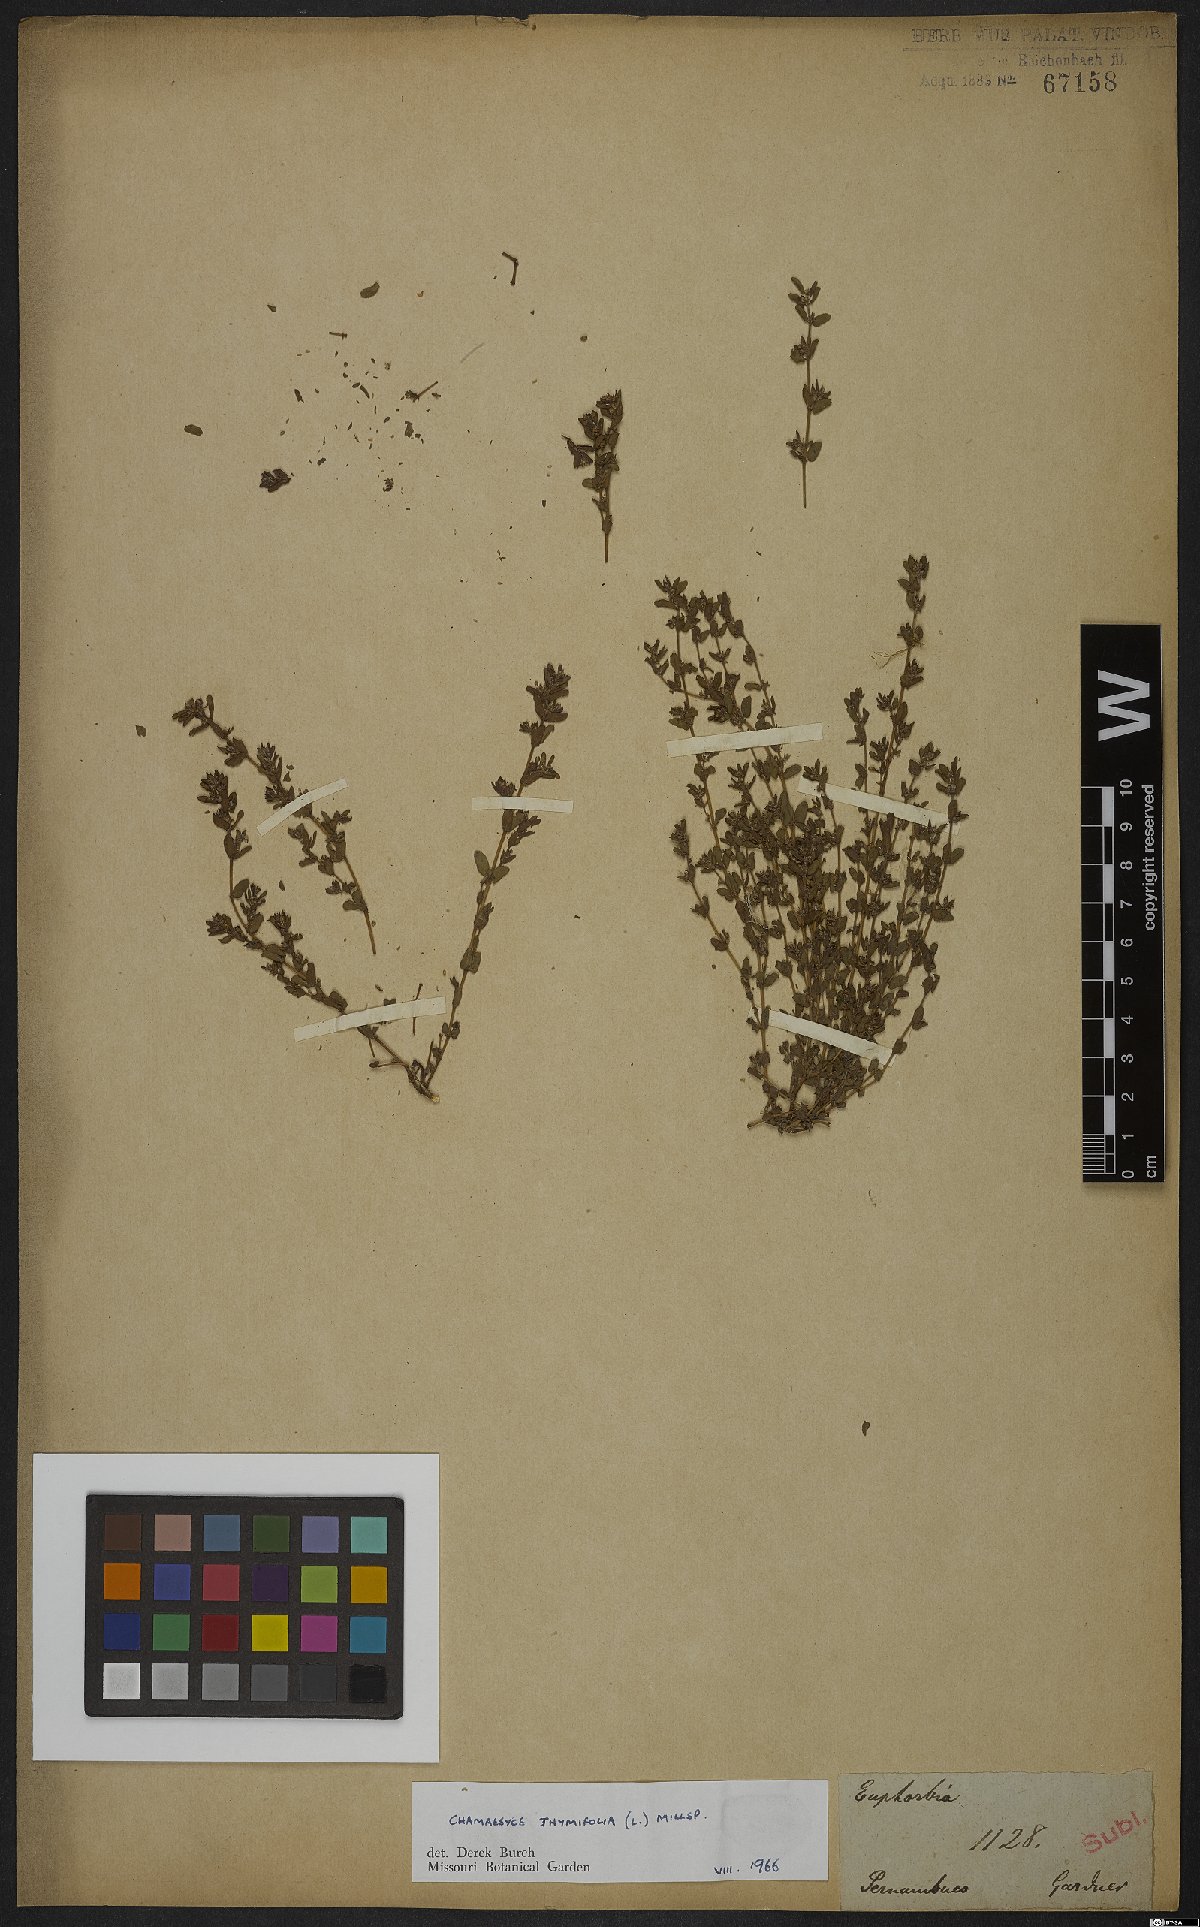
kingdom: Plantae
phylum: Tracheophyta
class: Magnoliopsida
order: Malpighiales
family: Euphorbiaceae
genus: Euphorbia
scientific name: Euphorbia scordiifolia
